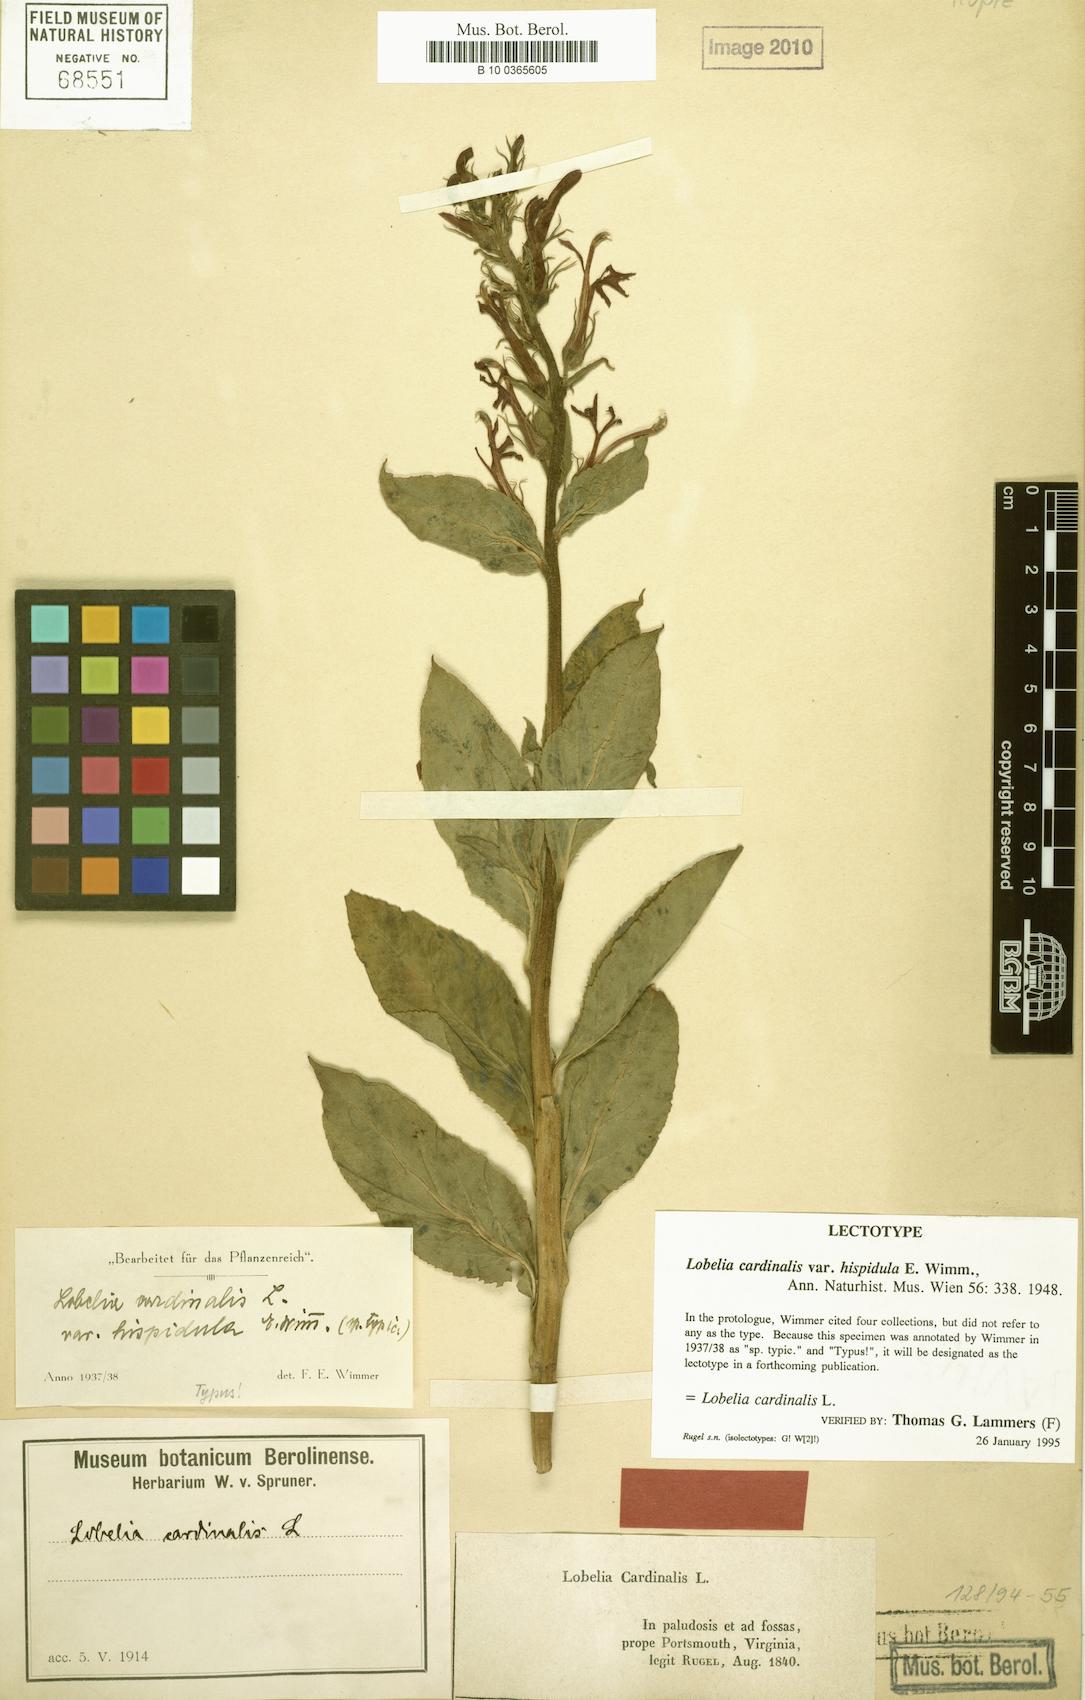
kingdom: Plantae
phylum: Tracheophyta
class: Magnoliopsida
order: Asterales
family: Campanulaceae
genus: Lobelia
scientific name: Lobelia cardinalis
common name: Cardinal flower
